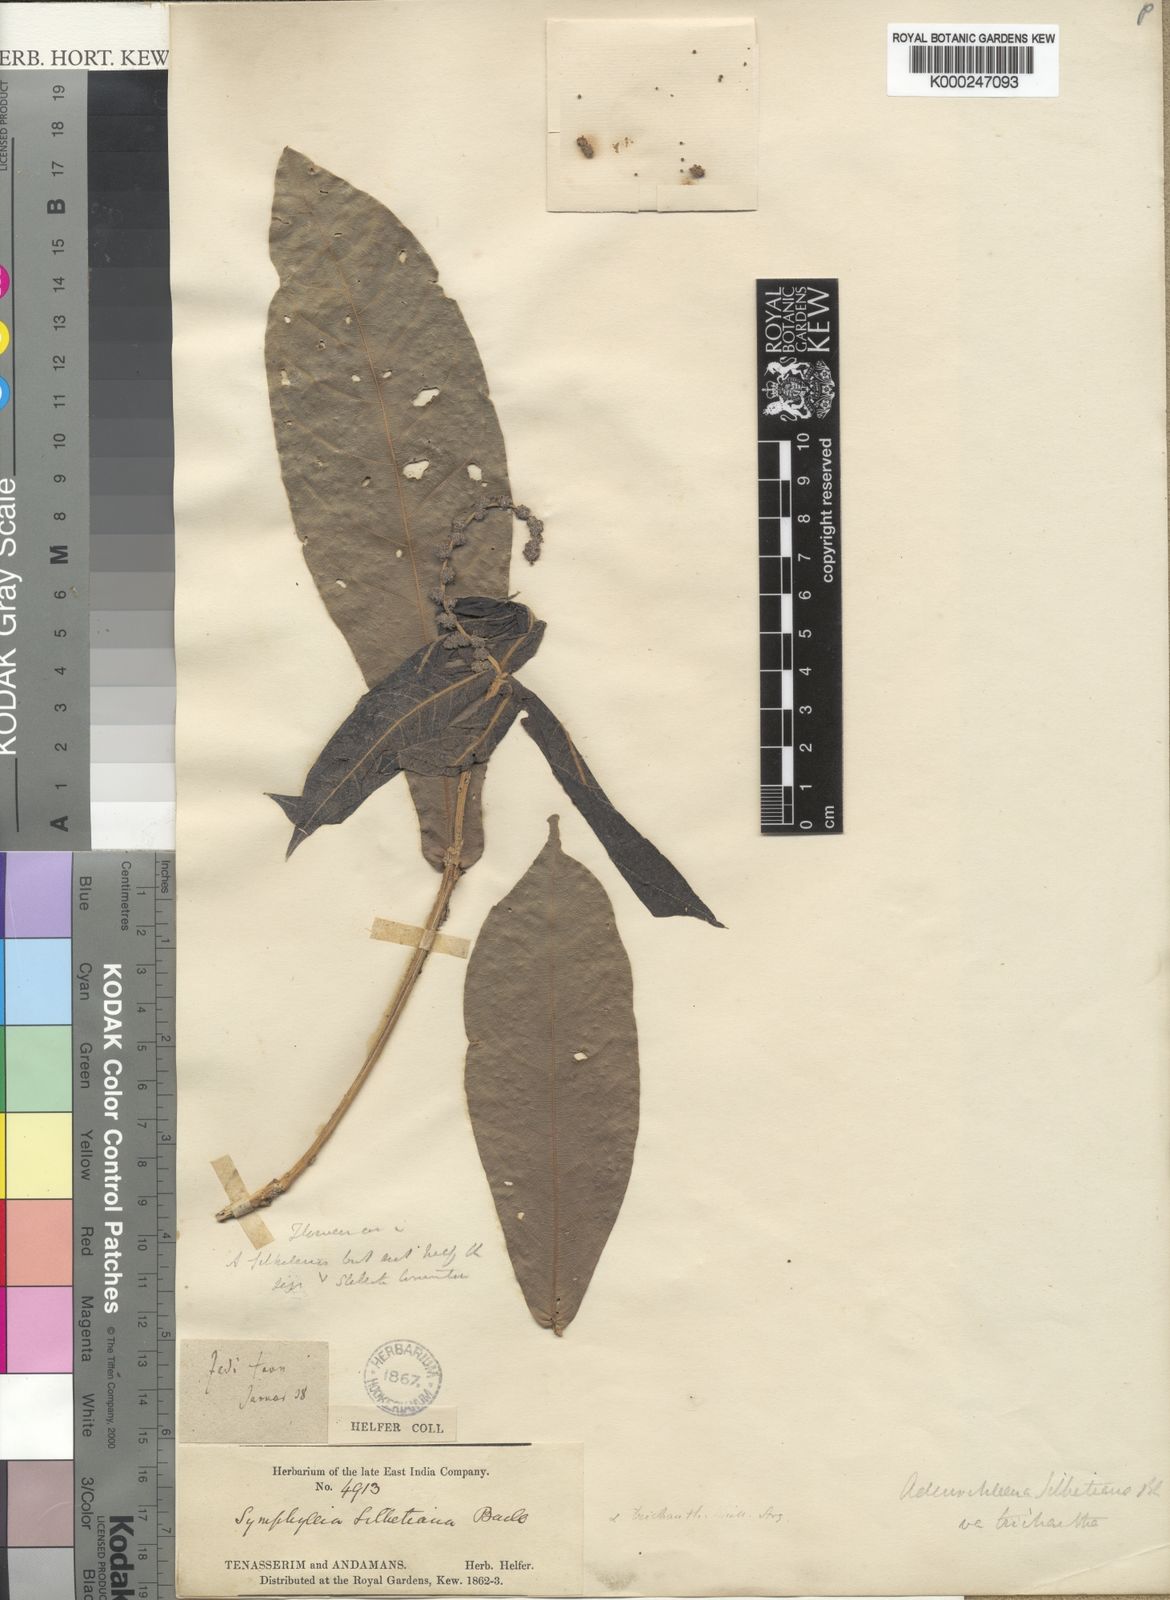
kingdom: Plantae
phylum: Tracheophyta
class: Magnoliopsida
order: Malpighiales
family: Euphorbiaceae
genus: Epiprinus
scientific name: Epiprinus siletianus
